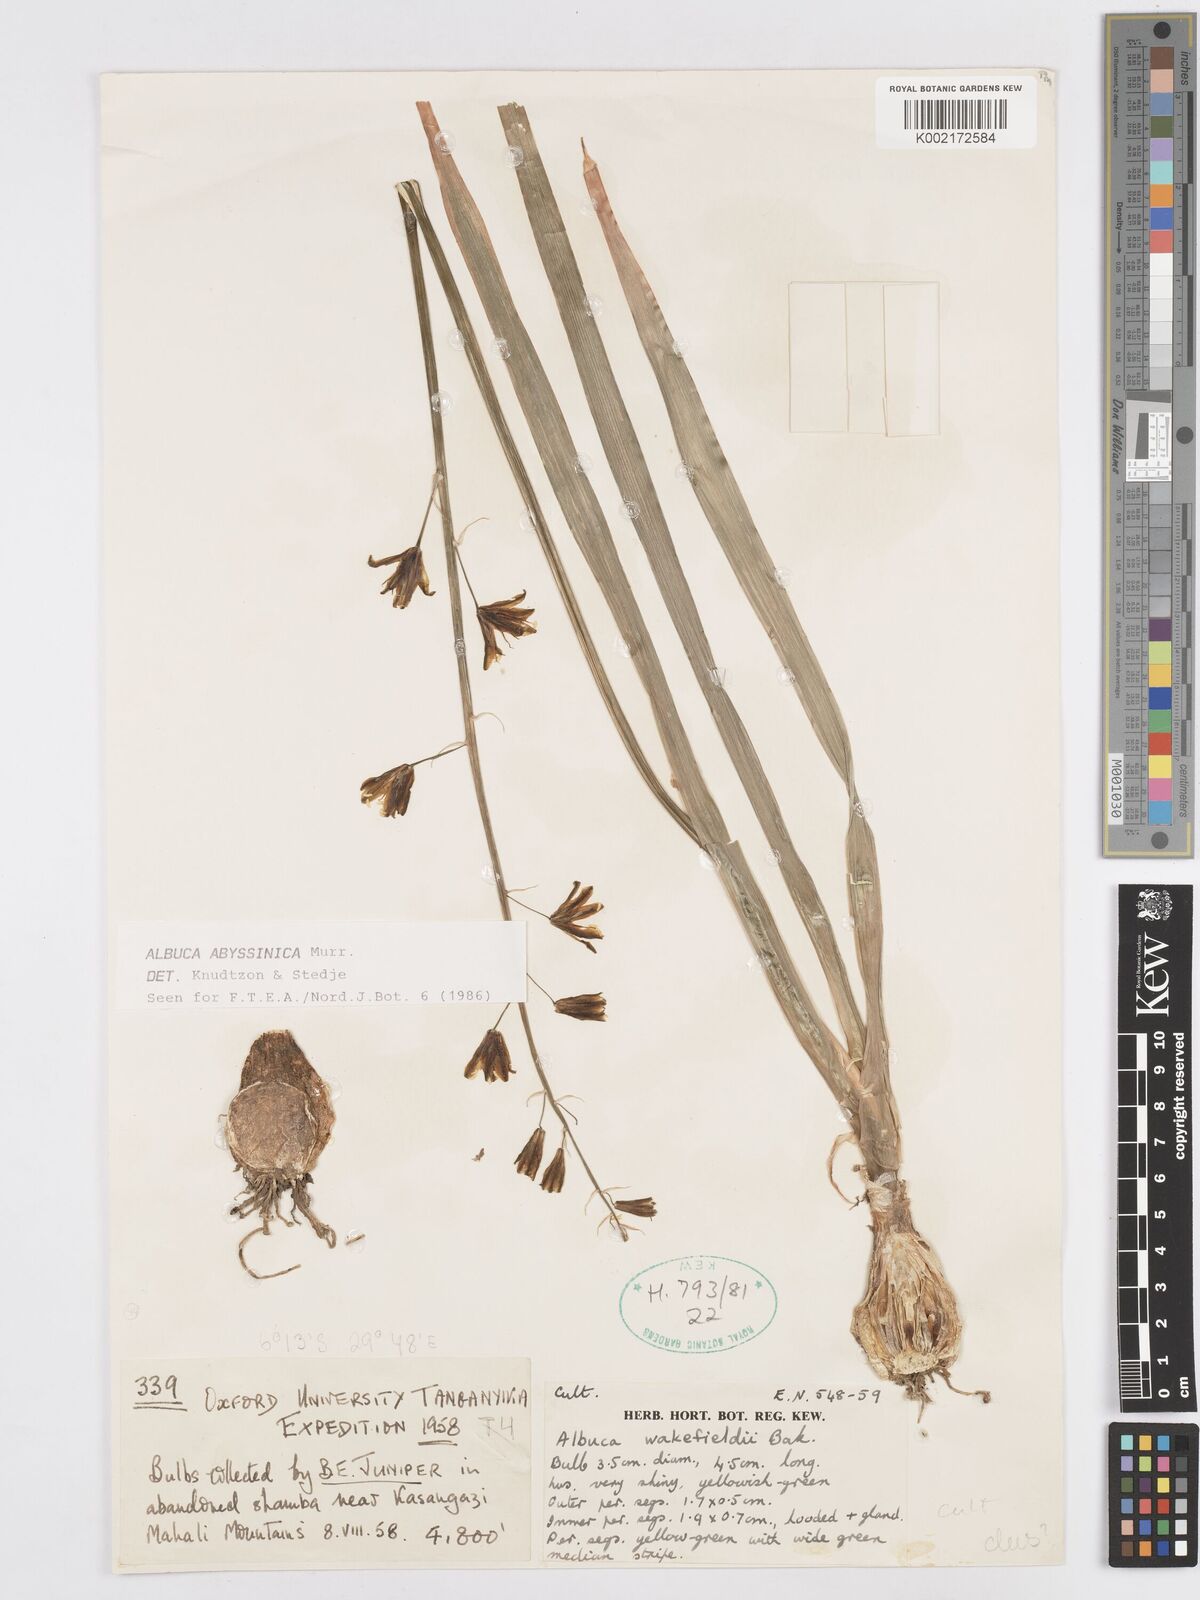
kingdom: Plantae
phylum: Tracheophyta
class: Liliopsida
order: Asparagales
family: Asparagaceae
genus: Albuca
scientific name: Albuca abyssinica
